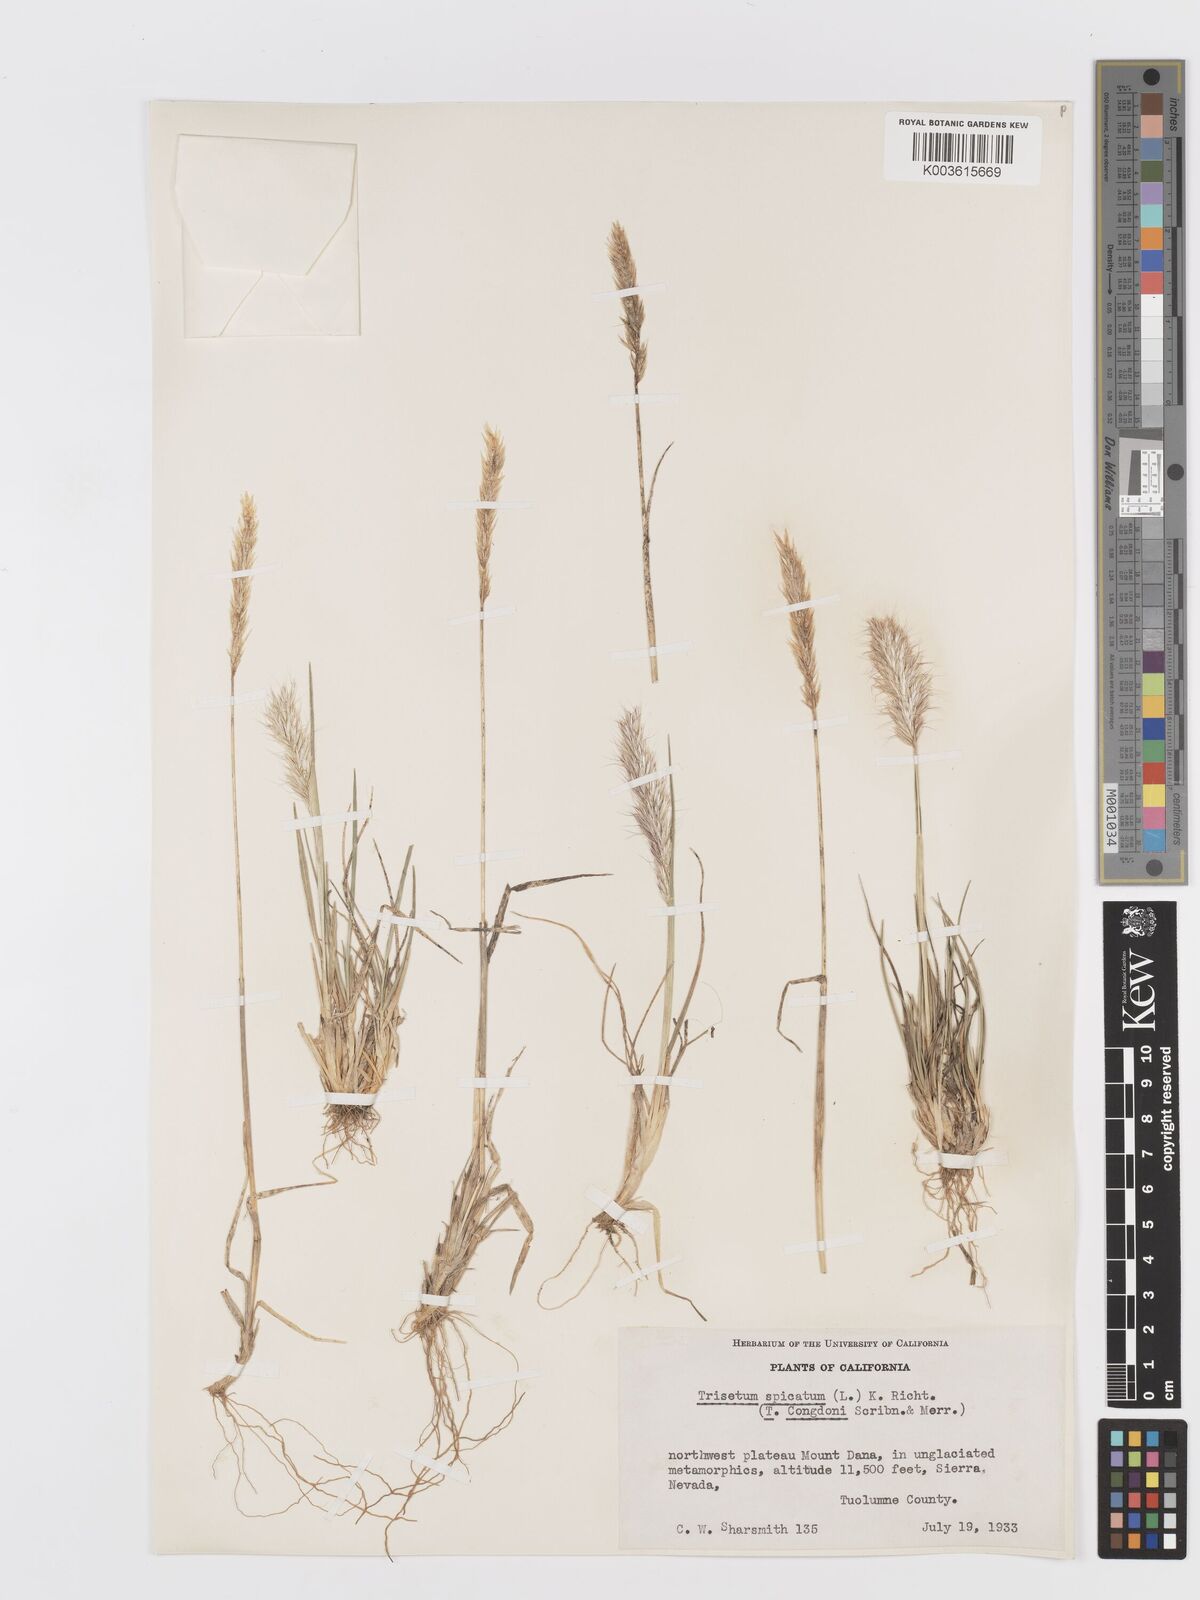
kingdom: Plantae
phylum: Tracheophyta
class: Liliopsida
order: Poales
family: Poaceae
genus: Koeleria
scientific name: Koeleria spicata
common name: Mountain trisetum
